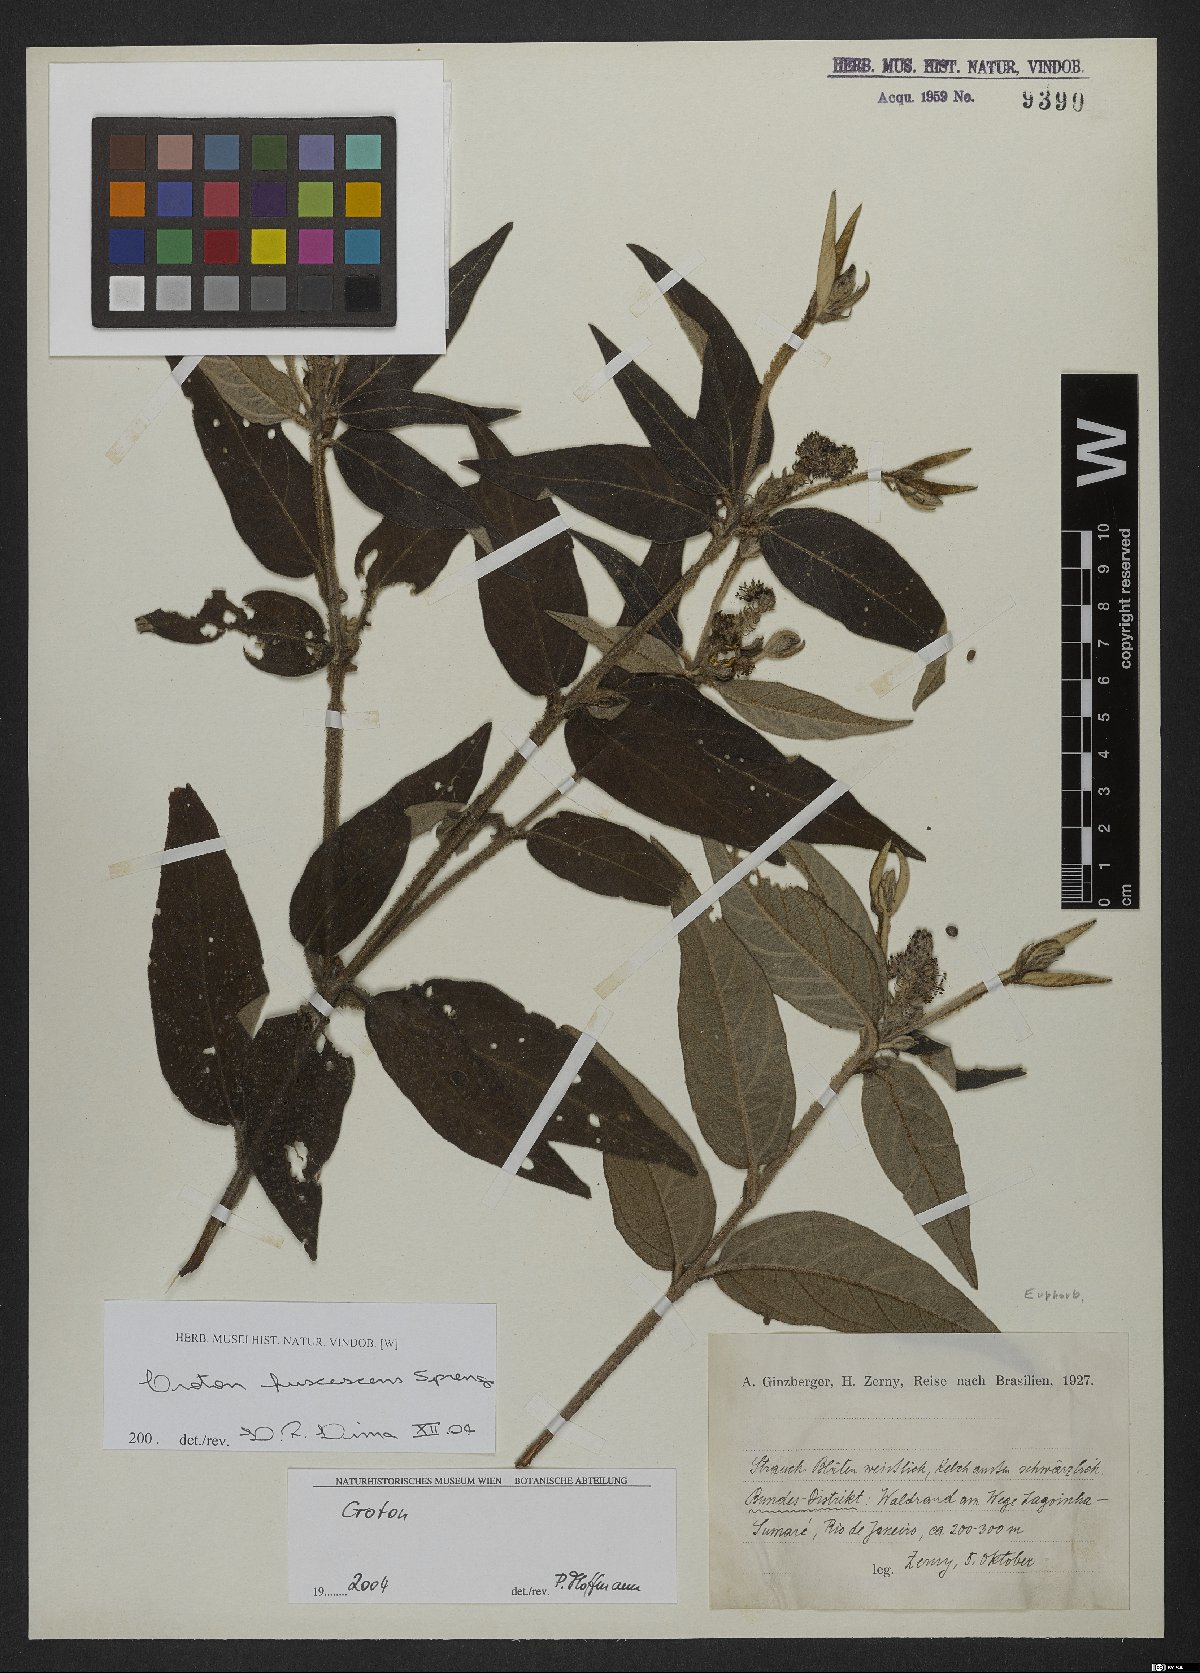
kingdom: Plantae
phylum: Tracheophyta
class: Magnoliopsida
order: Malpighiales
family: Euphorbiaceae
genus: Croton
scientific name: Croton gnaphaloides
